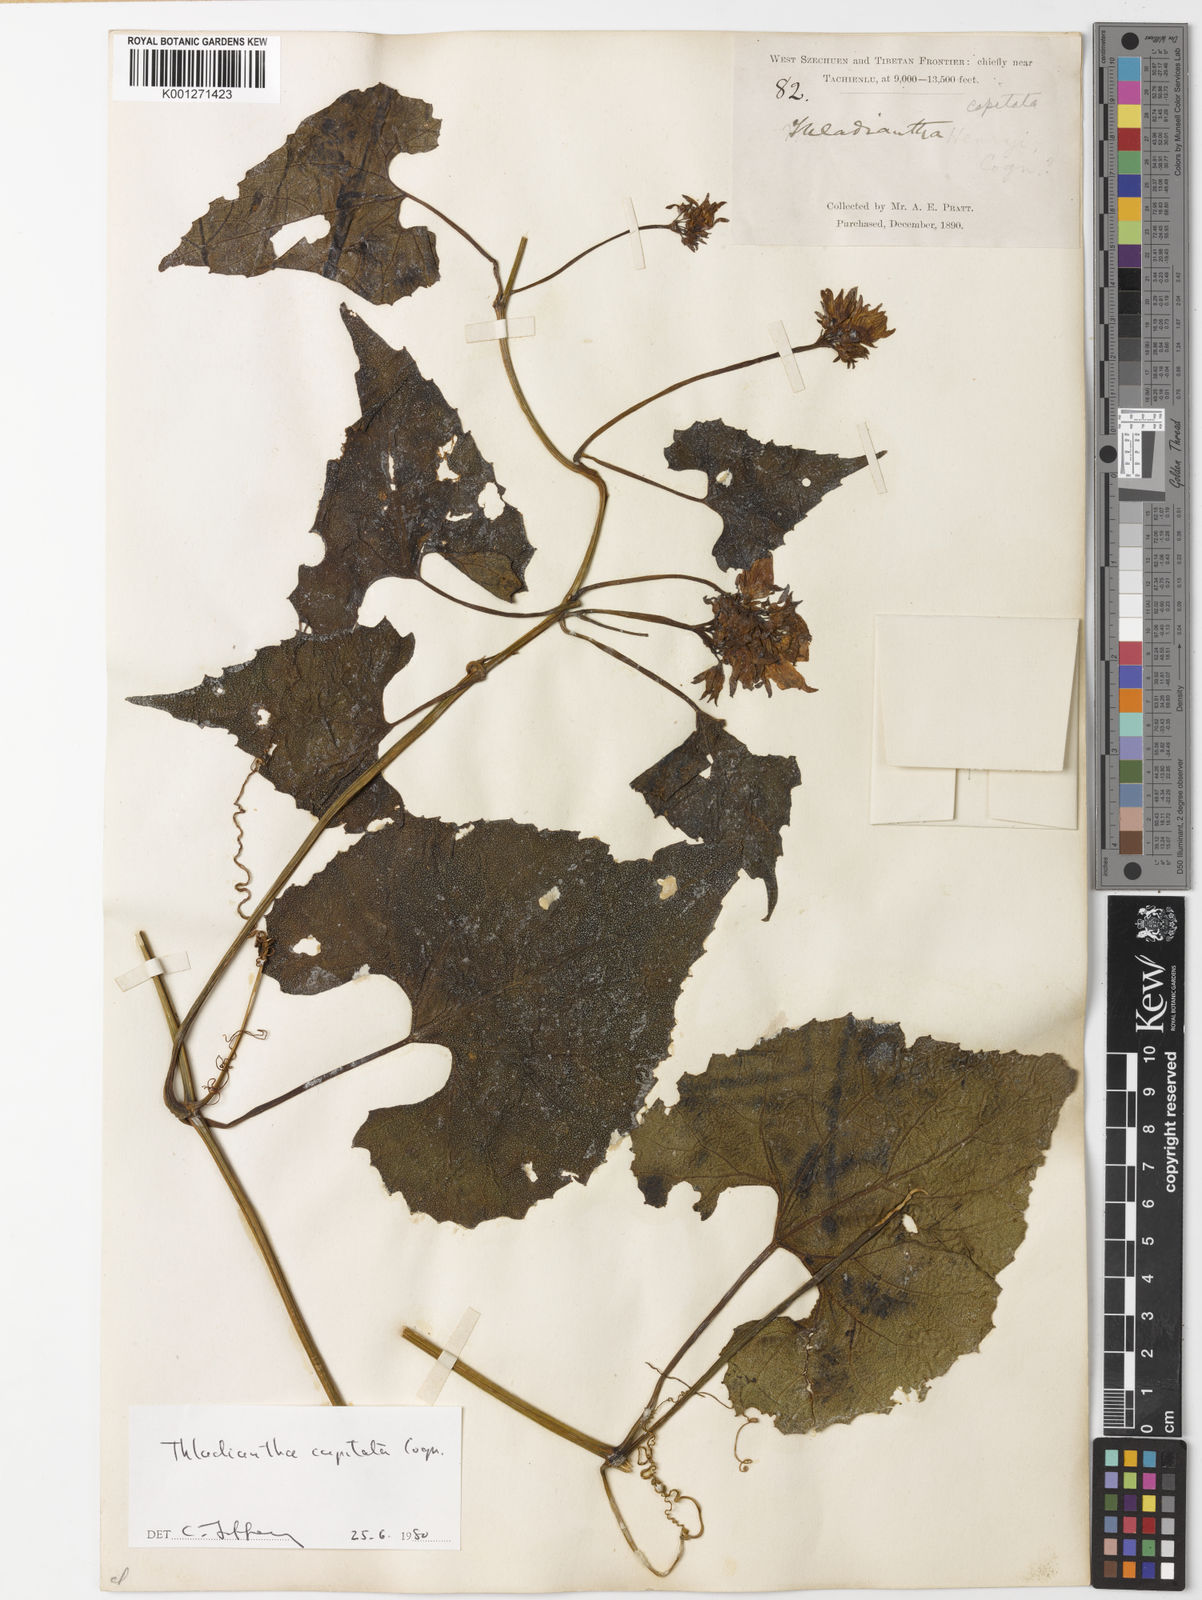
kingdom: Plantae
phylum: Tracheophyta
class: Magnoliopsida
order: Cucurbitales
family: Cucurbitaceae
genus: Thladiantha
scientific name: Thladiantha capitata
